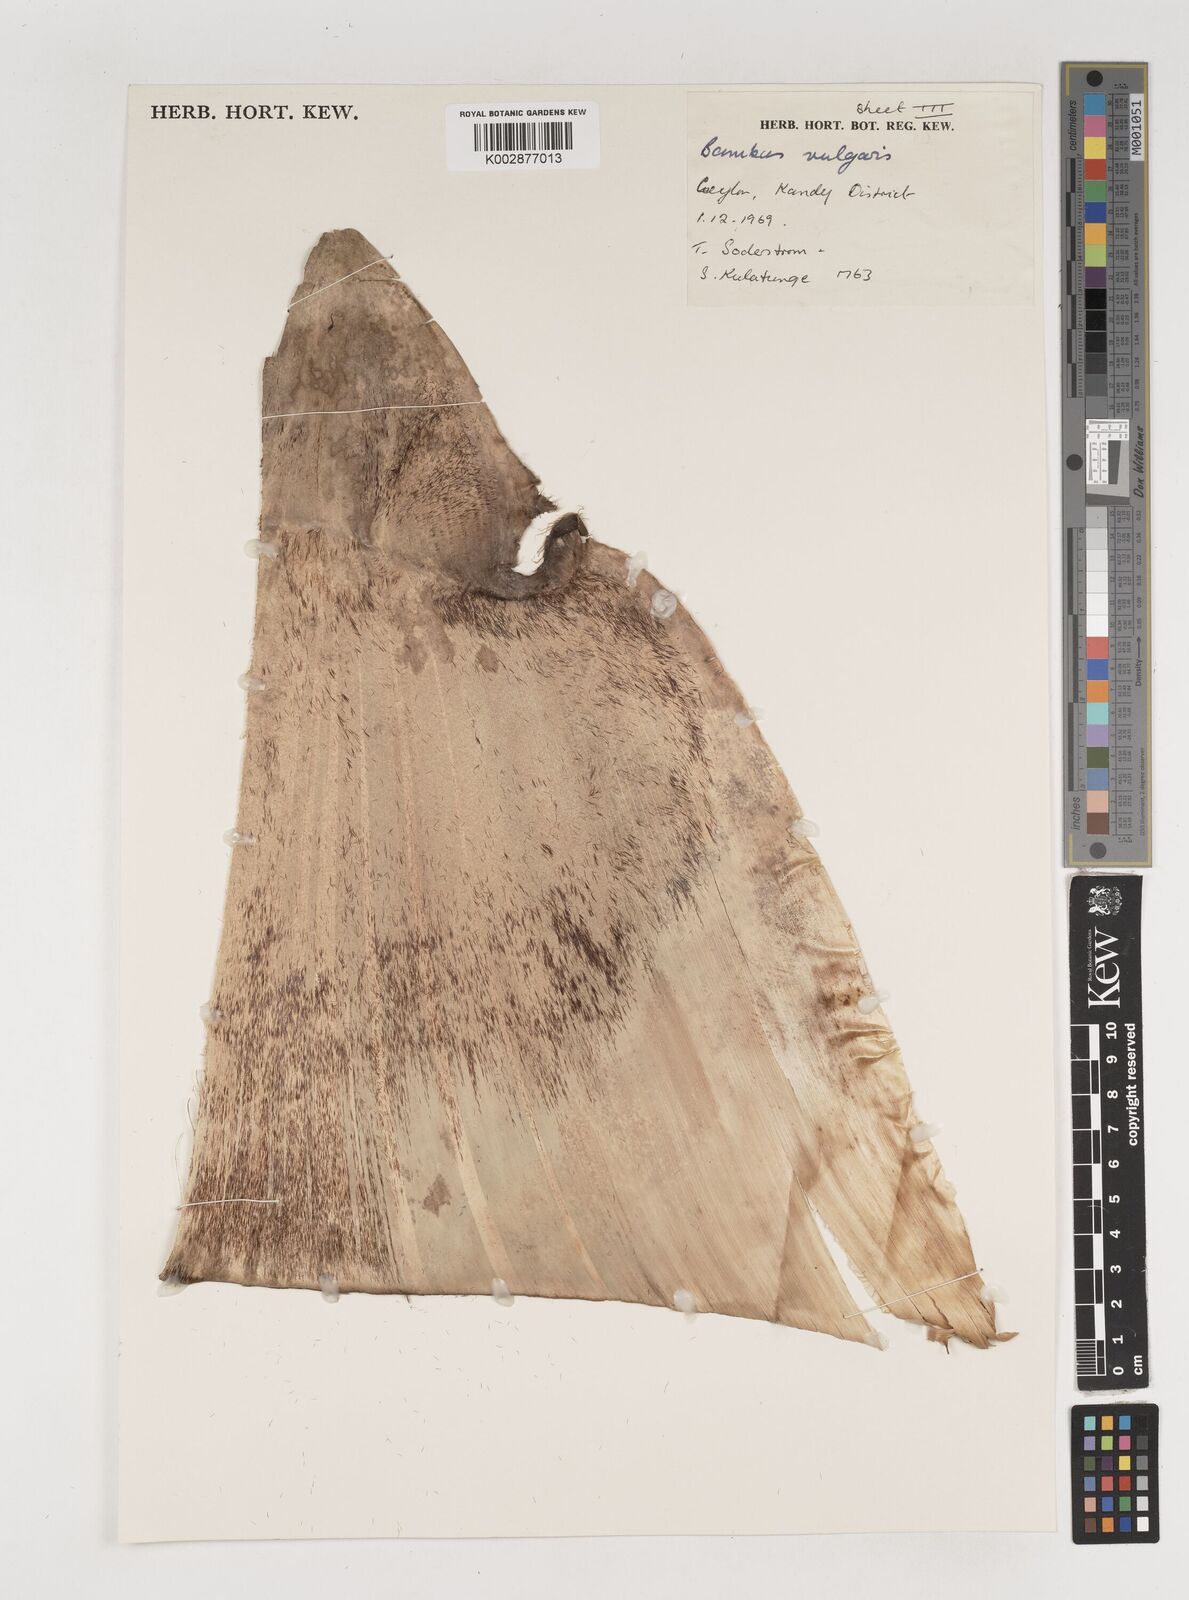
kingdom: Plantae
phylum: Tracheophyta
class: Liliopsida
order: Poales
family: Poaceae
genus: Bambusa
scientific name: Bambusa vulgaris
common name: Common bamboo
